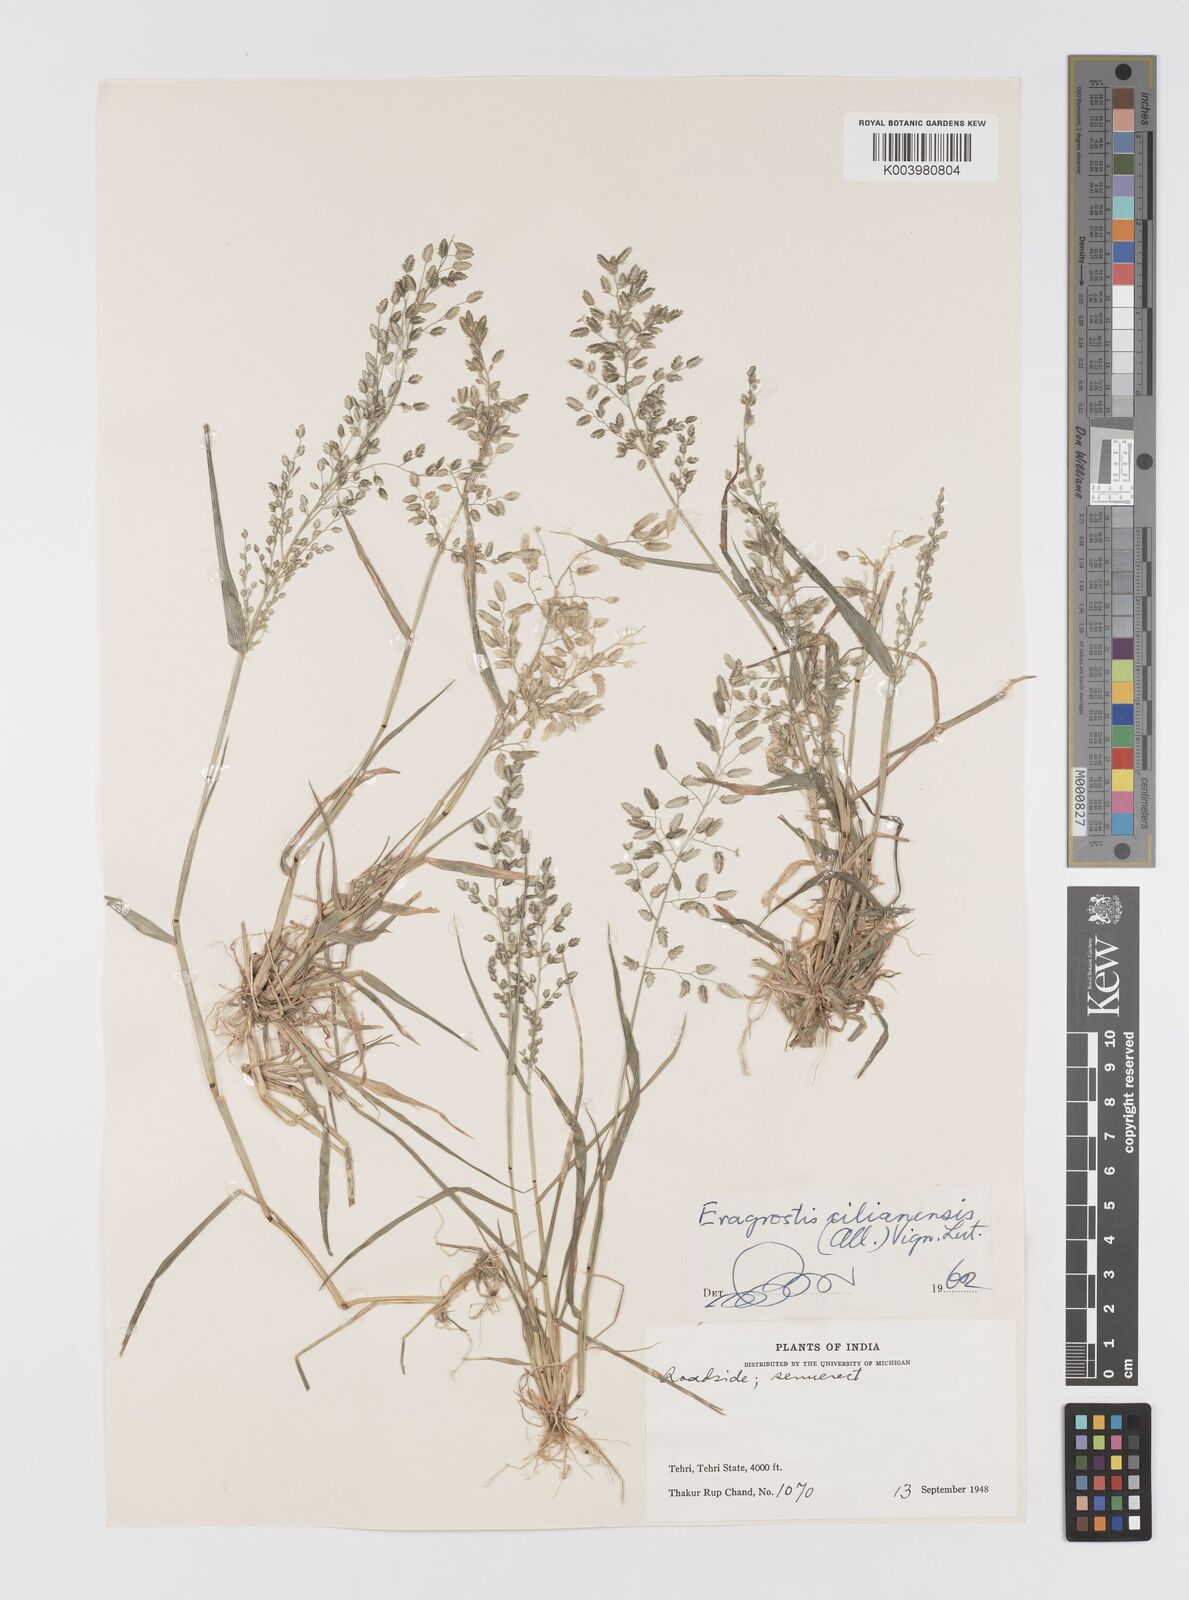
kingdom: Plantae
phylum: Tracheophyta
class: Liliopsida
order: Poales
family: Poaceae
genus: Eragrostis
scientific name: Eragrostis cilianensis
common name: Stinkgrass
